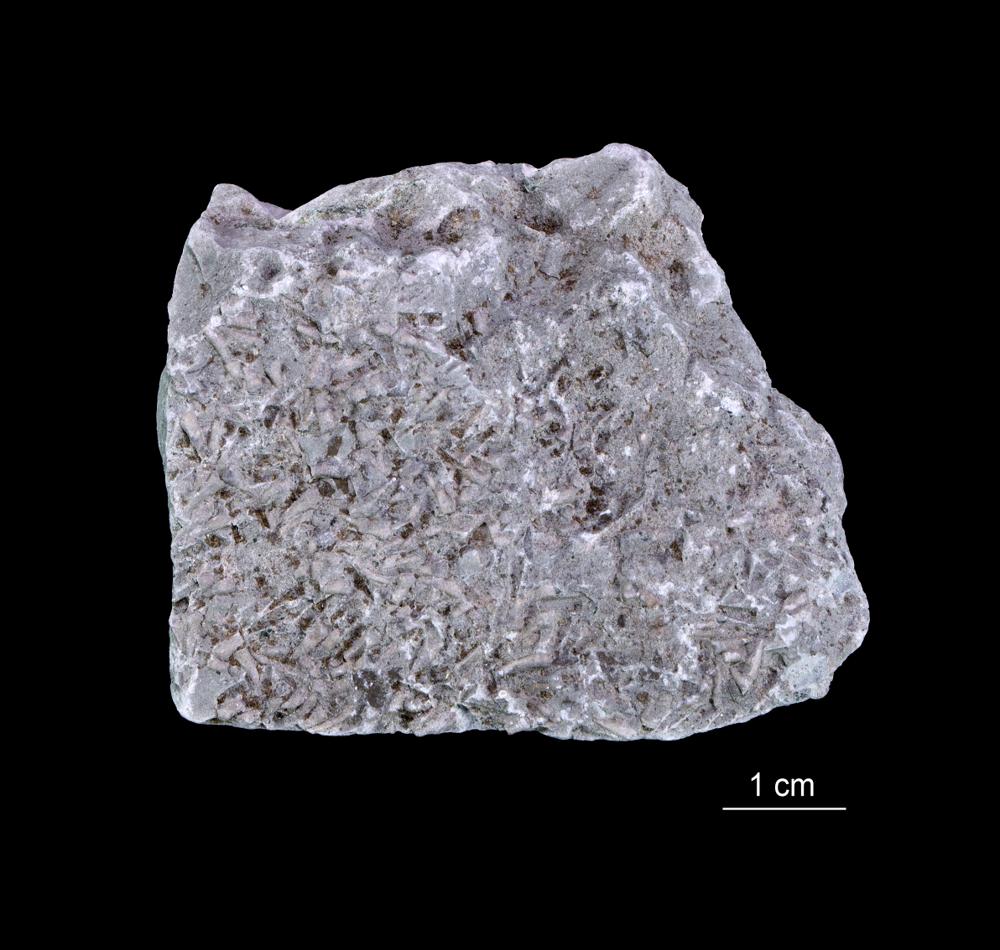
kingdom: Animalia
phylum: Annelida
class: Polychaeta
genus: Volborthella
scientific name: Volborthella tenuis
